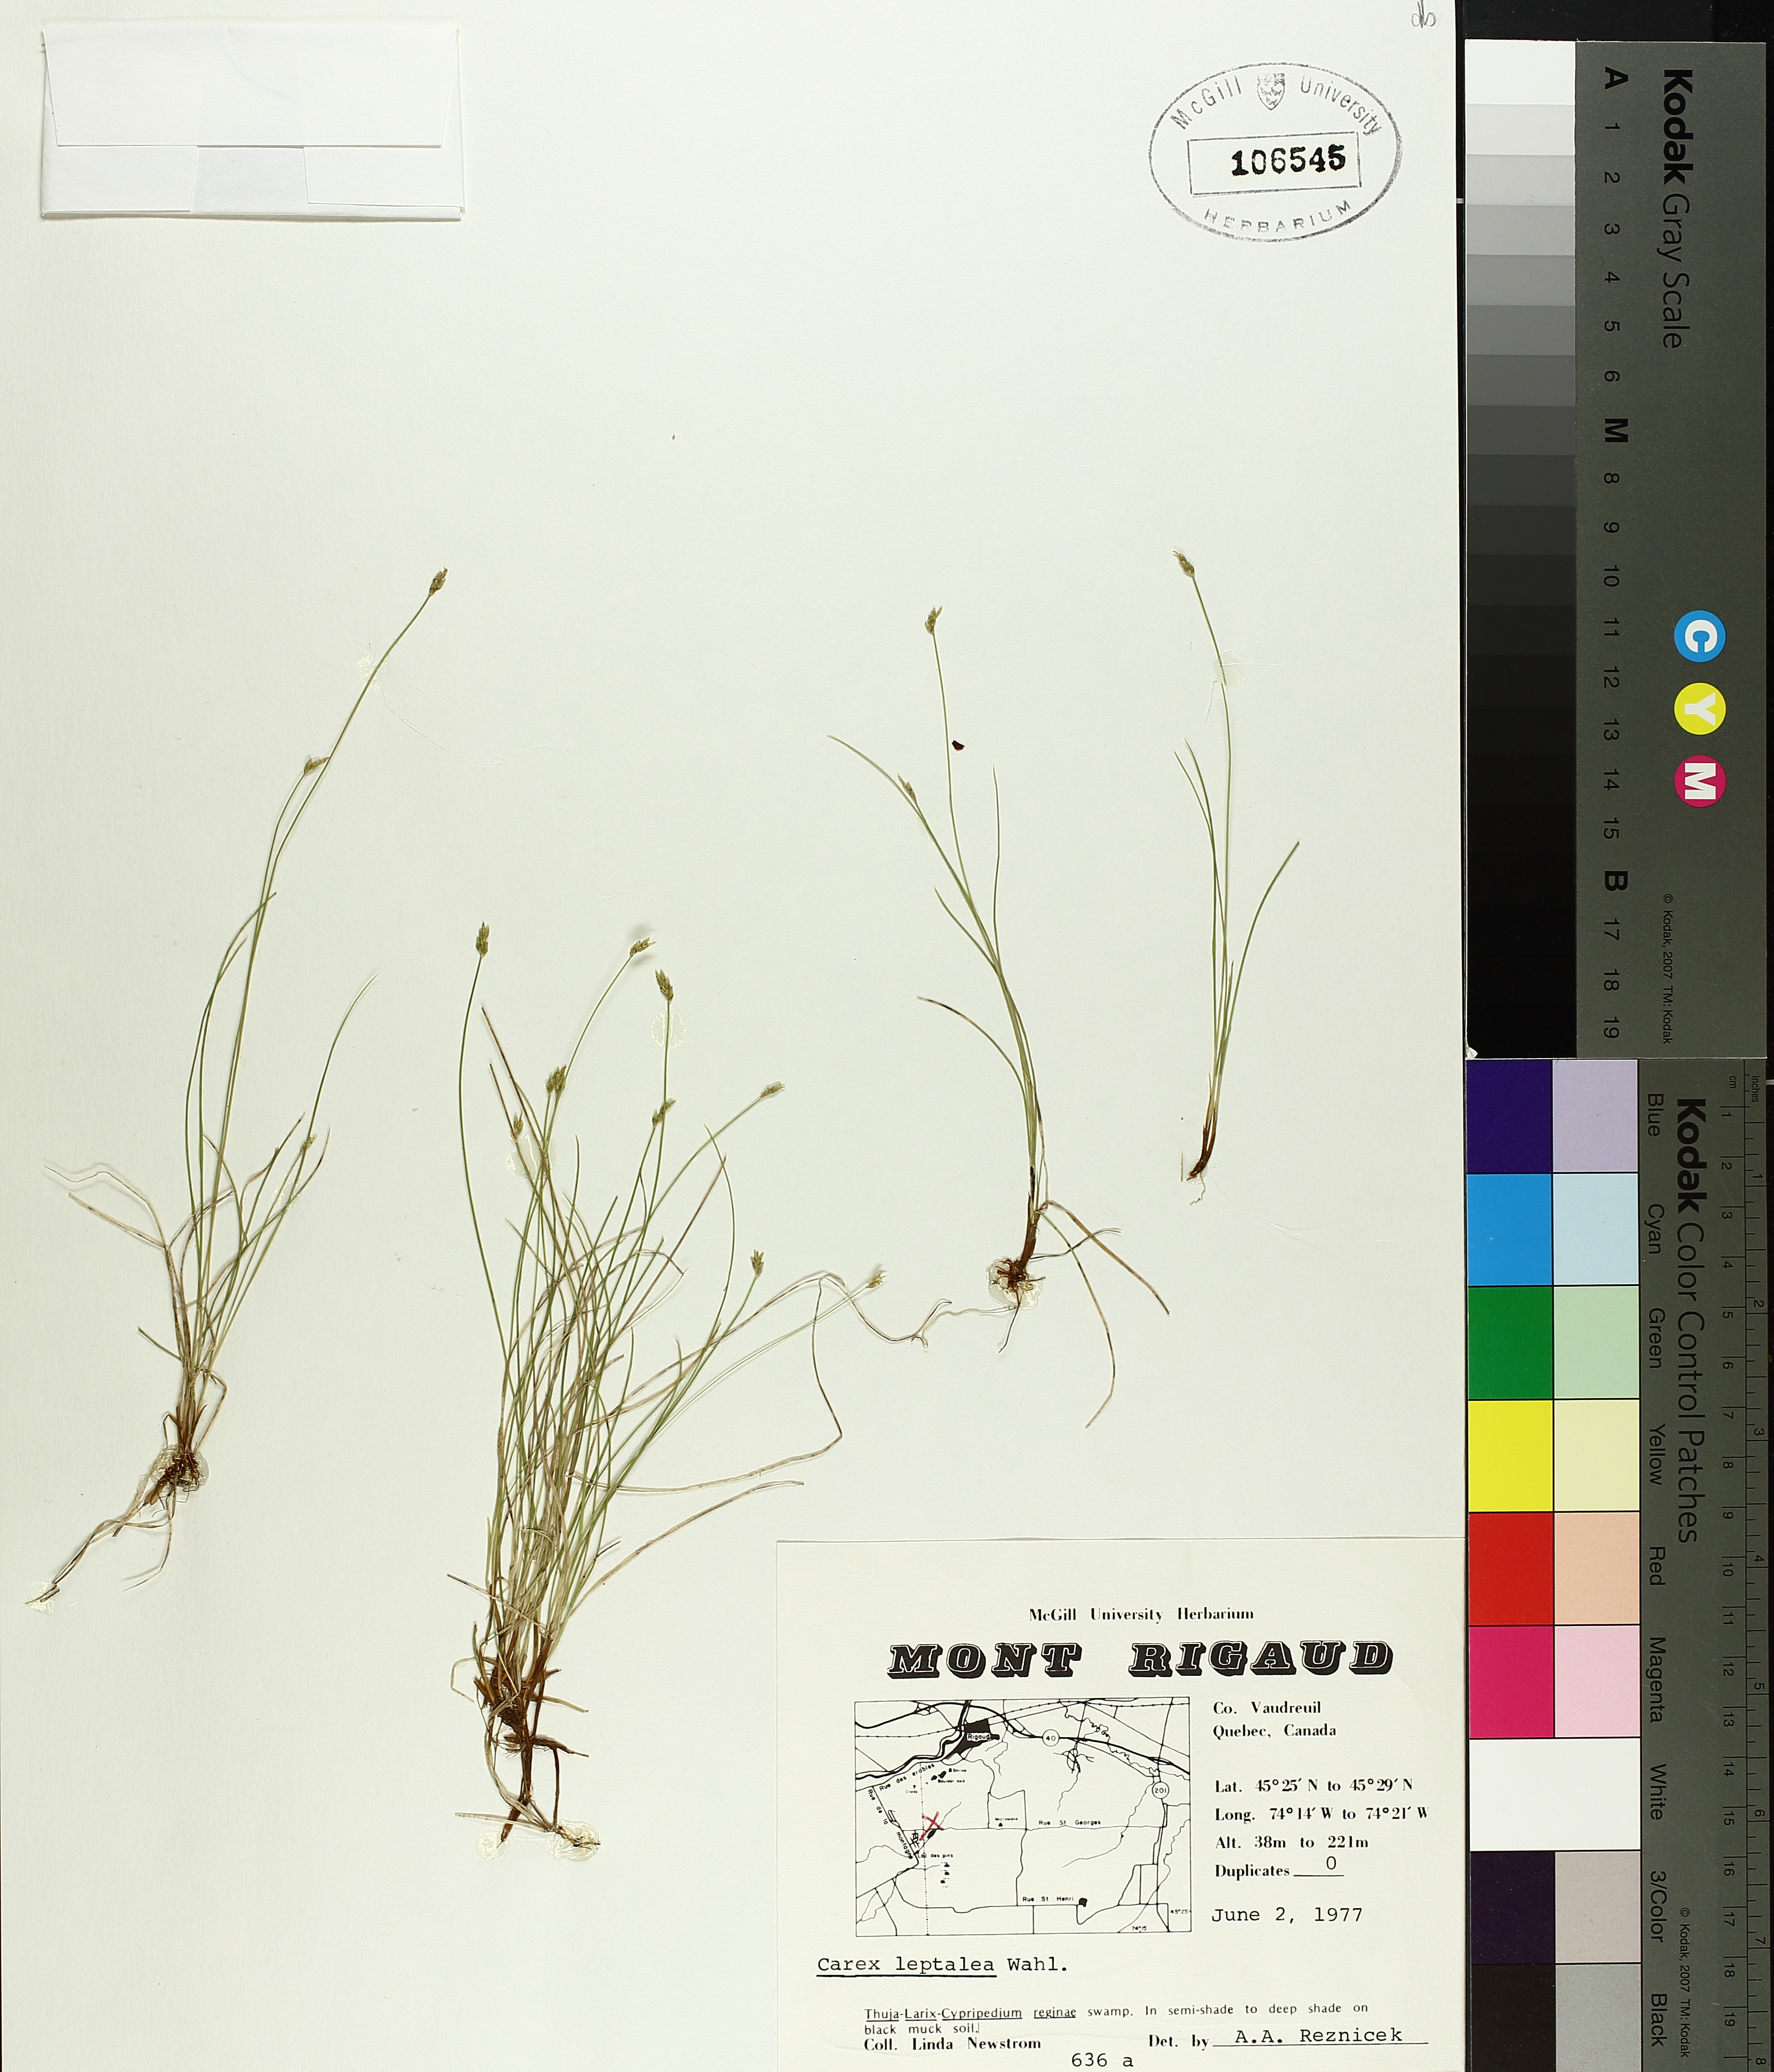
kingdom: Plantae
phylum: Tracheophyta
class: Liliopsida
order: Poales
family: Cyperaceae
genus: Carex
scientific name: Carex leptalea
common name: Bristly-stalked sedge
